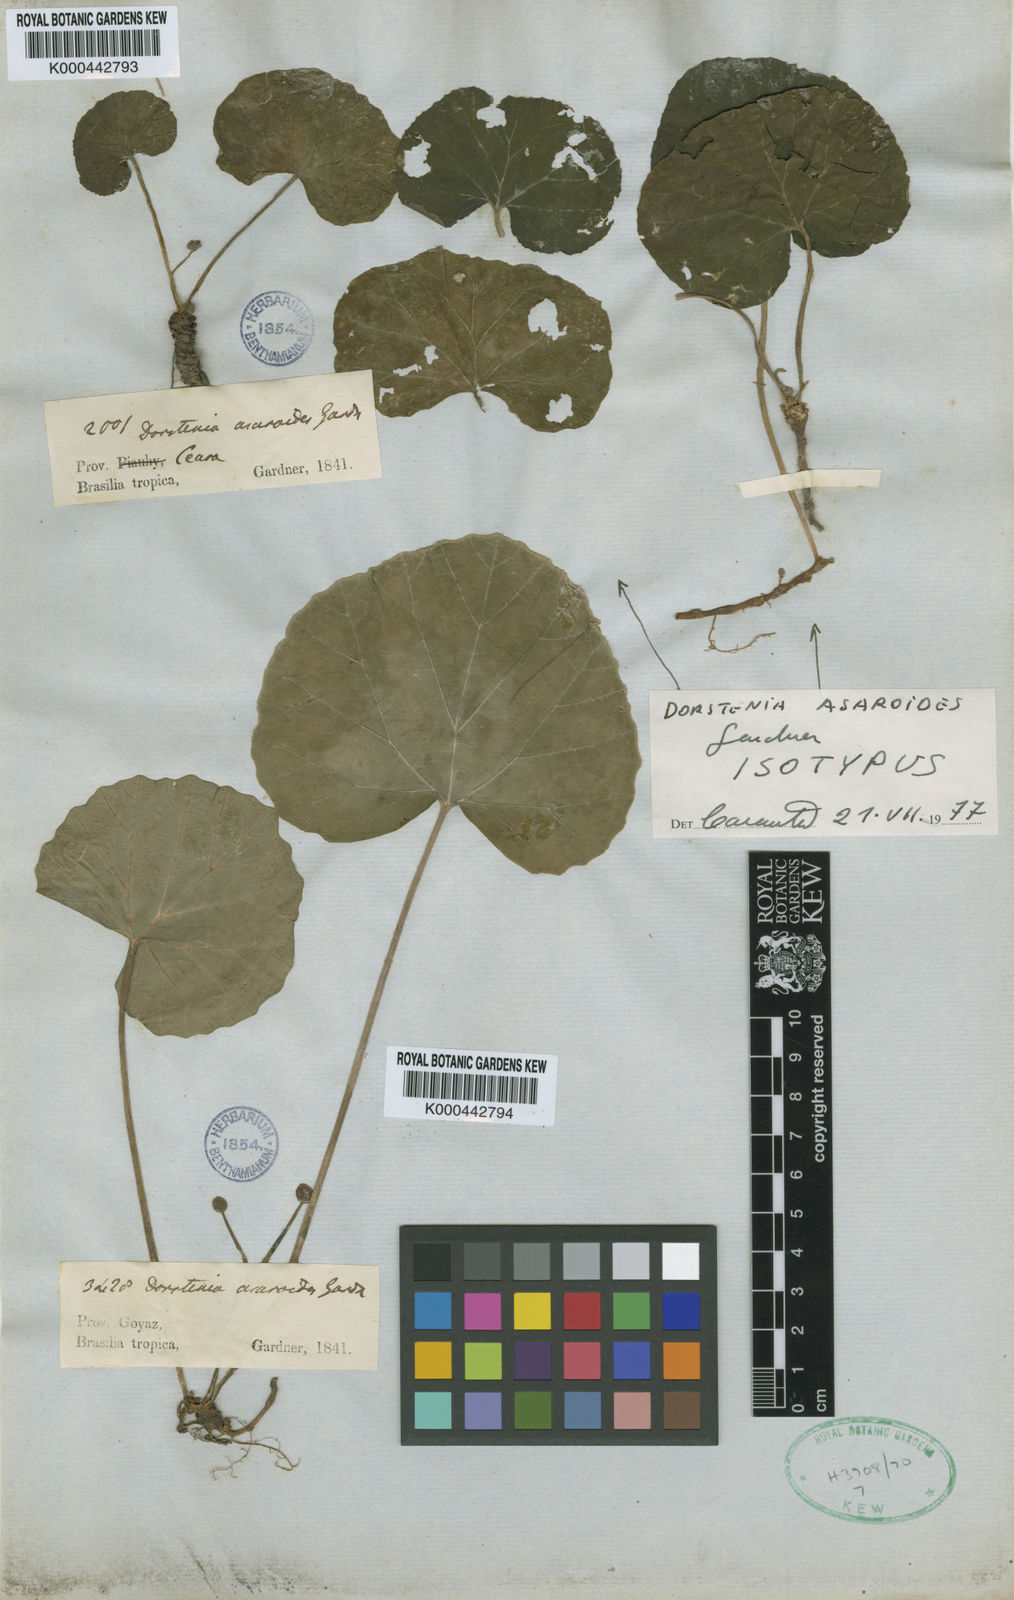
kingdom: Plantae
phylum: Tracheophyta
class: Magnoliopsida
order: Rosales
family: Moraceae
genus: Dorstenia
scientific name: Dorstenia cayapia
